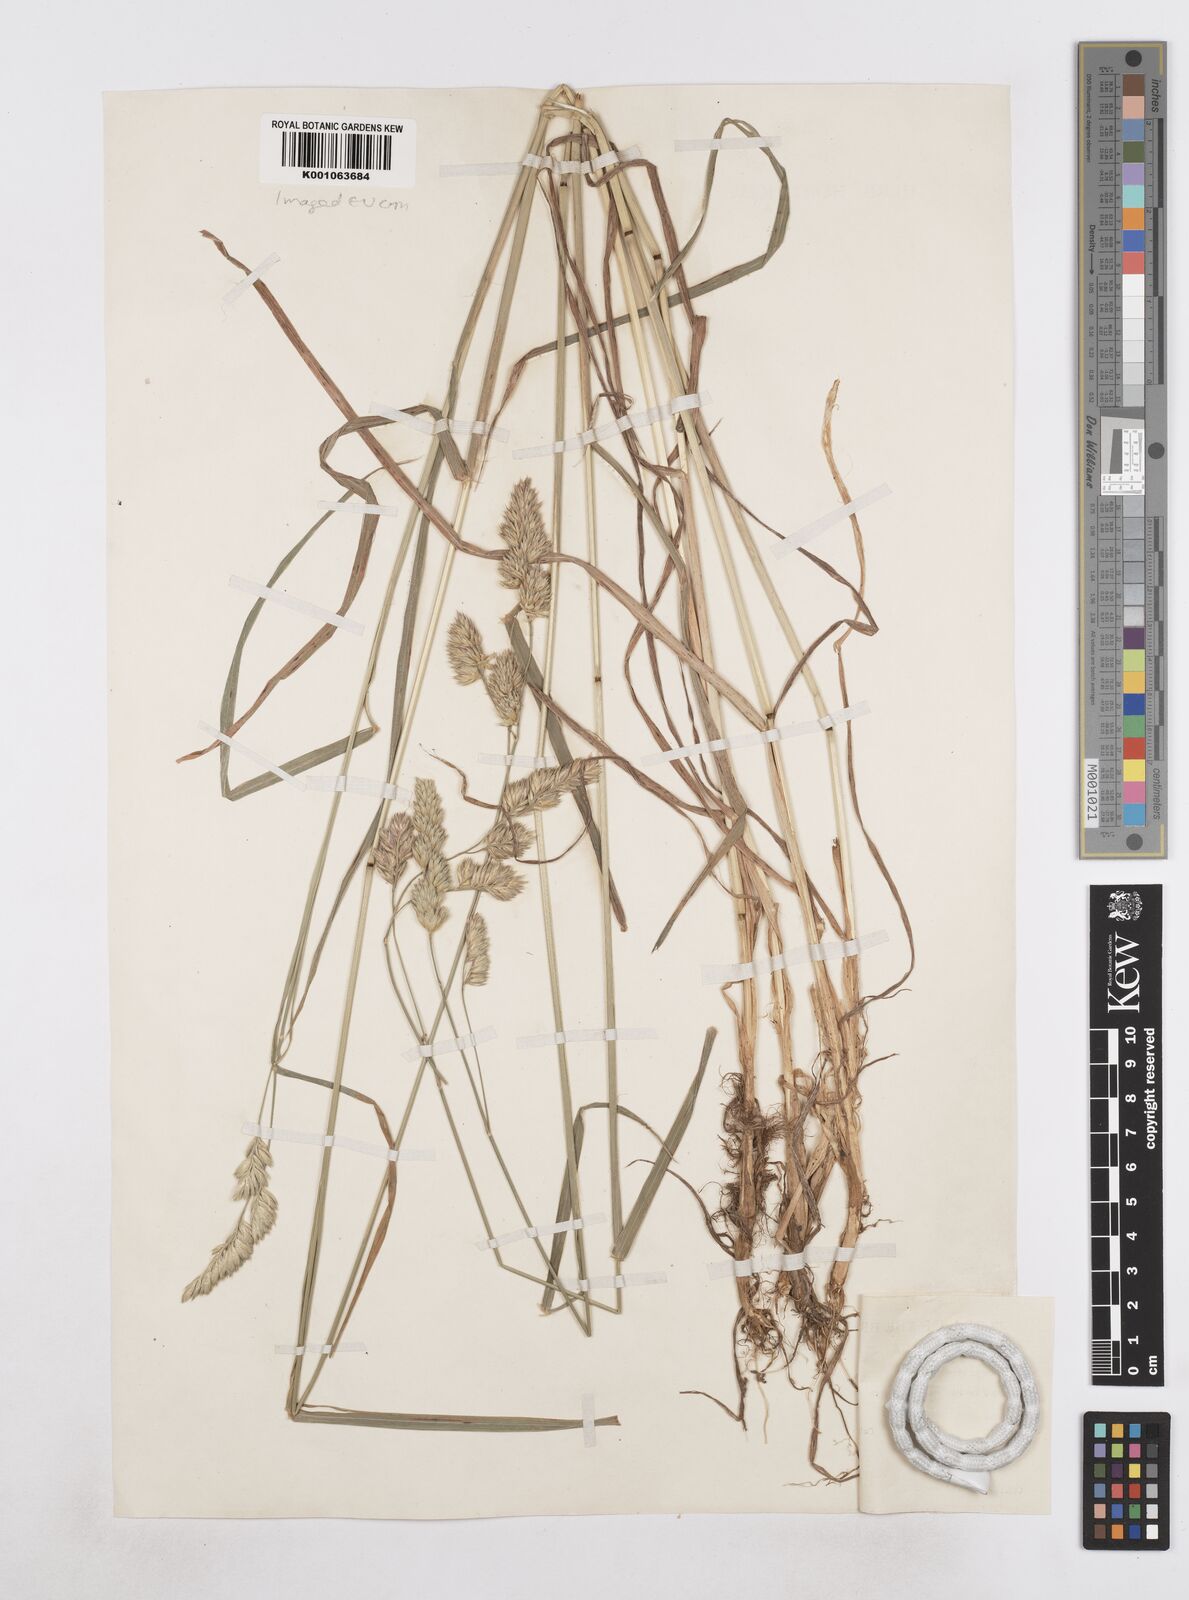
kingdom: Plantae
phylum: Tracheophyta
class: Liliopsida
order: Poales
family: Poaceae
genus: Dactylis
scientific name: Dactylis glomerata
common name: Orchardgrass
